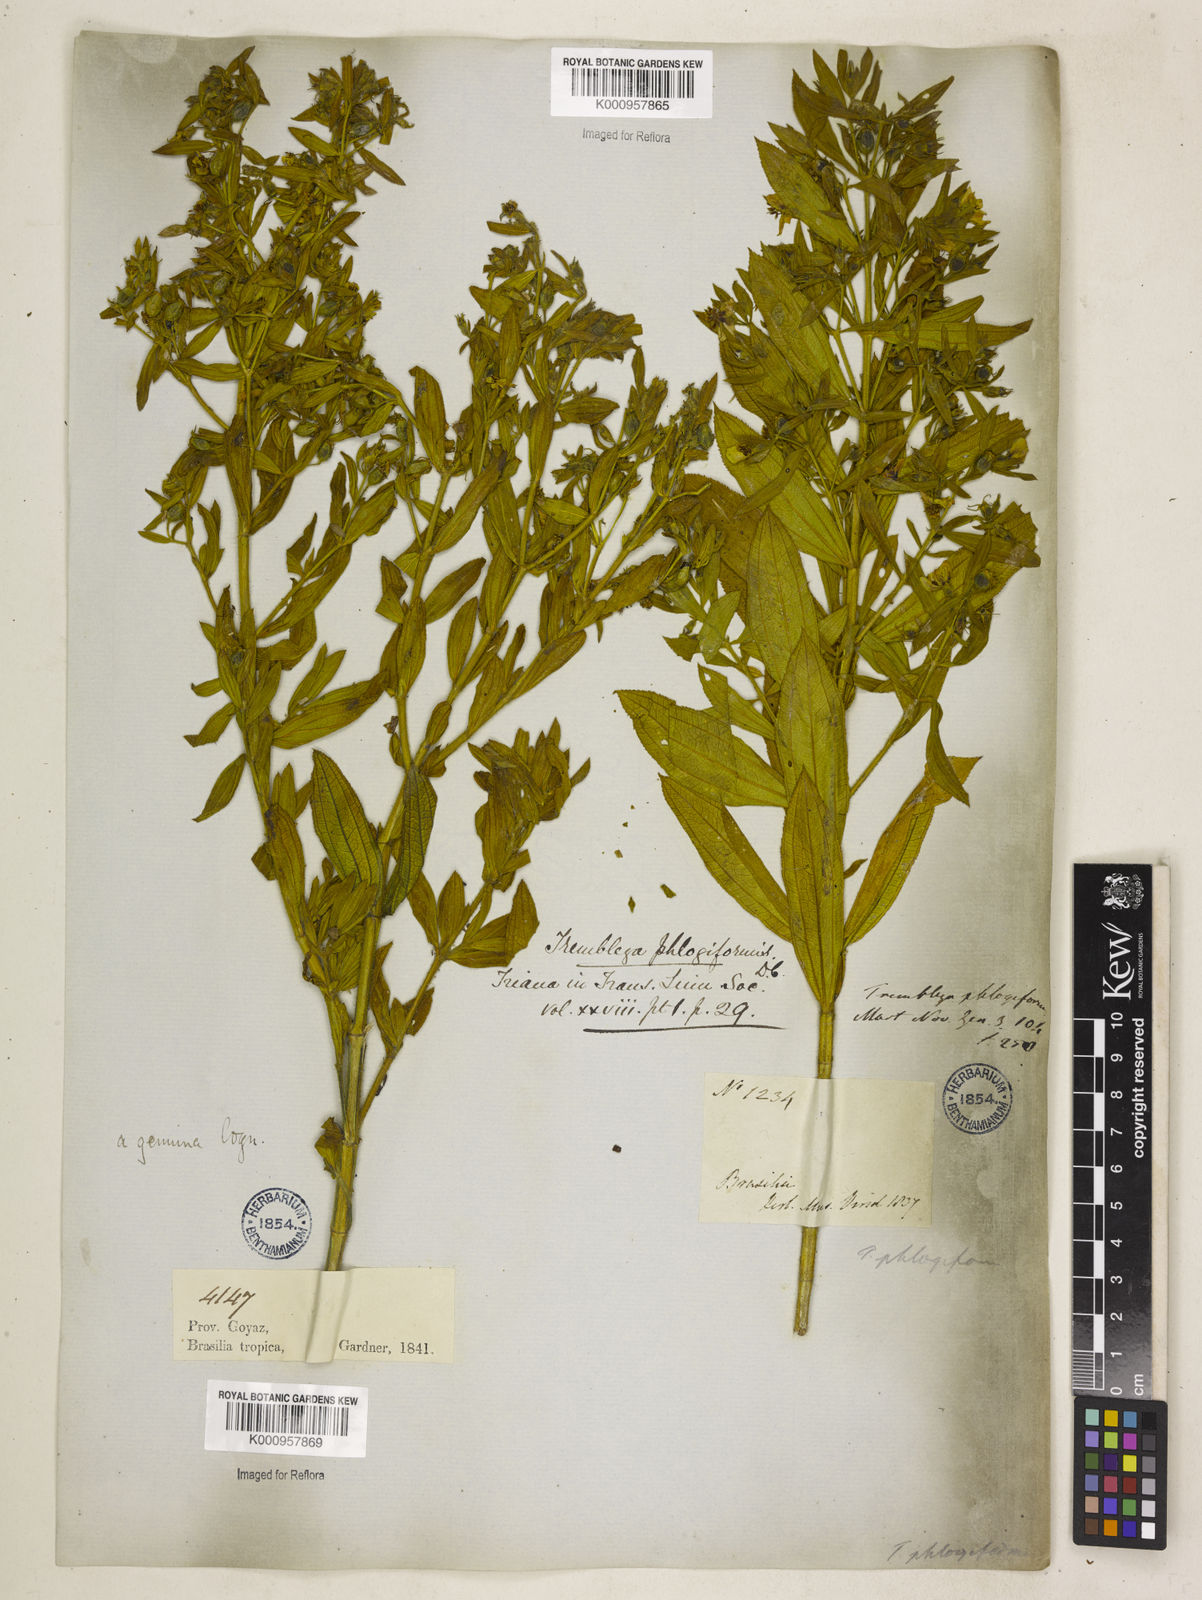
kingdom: Plantae
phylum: Tracheophyta
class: Magnoliopsida
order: Myrtales
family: Melastomataceae
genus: Microlicia
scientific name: Microlicia phlogiformis
